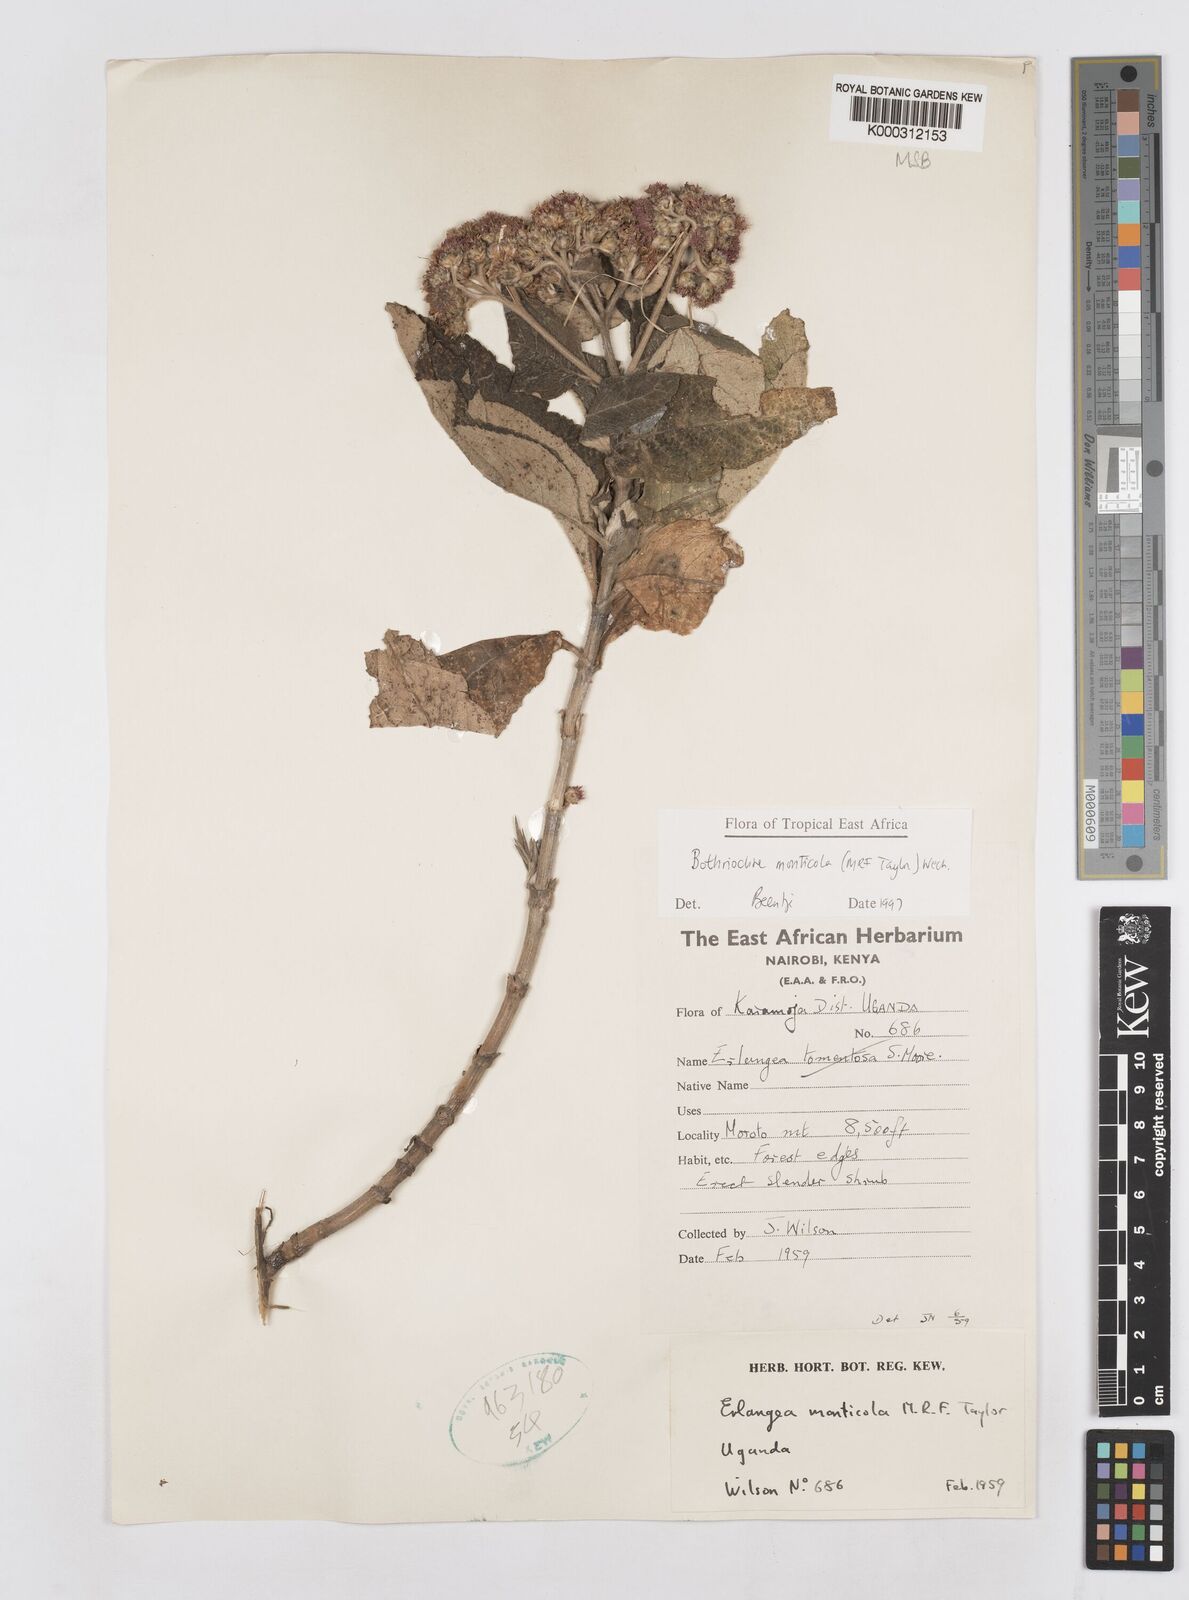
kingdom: Plantae
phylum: Tracheophyta
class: Magnoliopsida
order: Asterales
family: Asteraceae
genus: Bothriocline
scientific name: Bothriocline monticola
